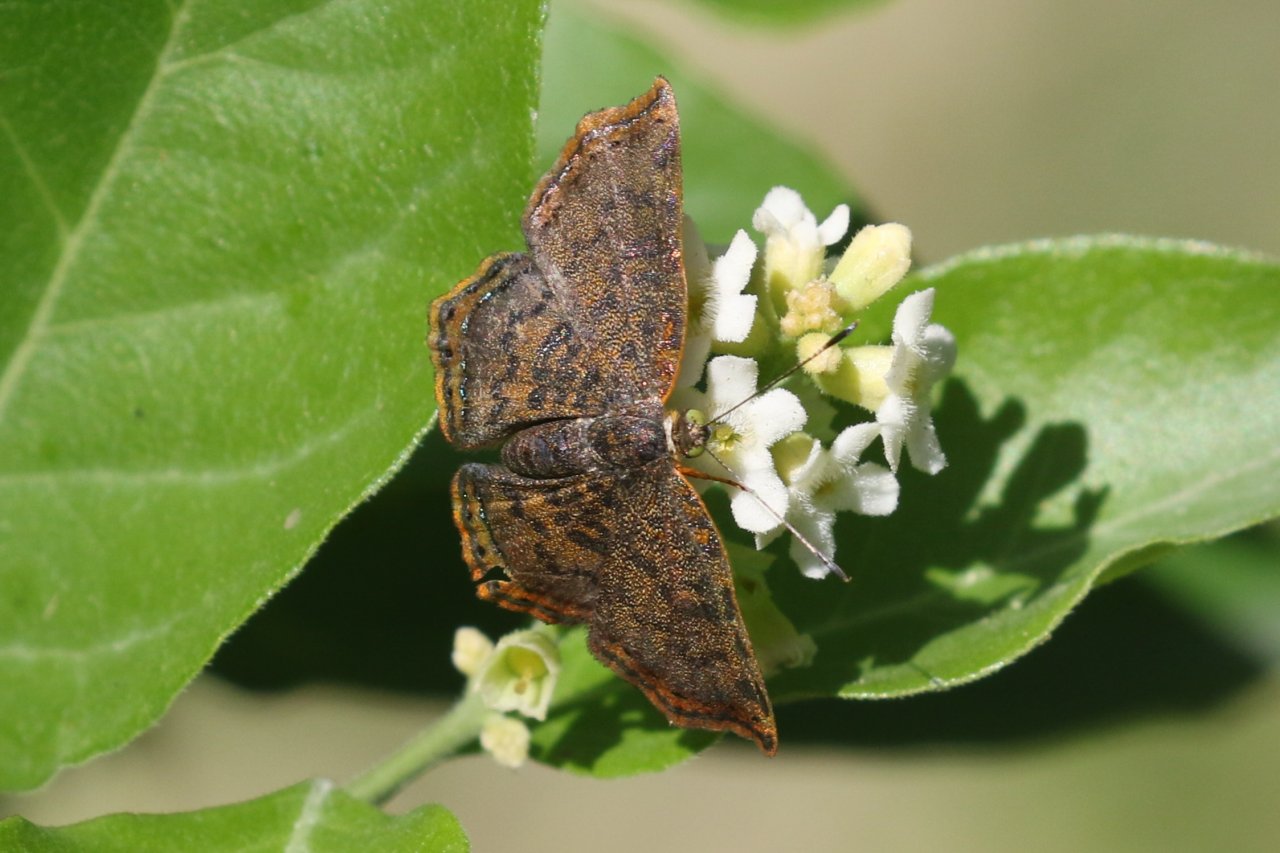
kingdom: Animalia
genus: Caria
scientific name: Caria ino
